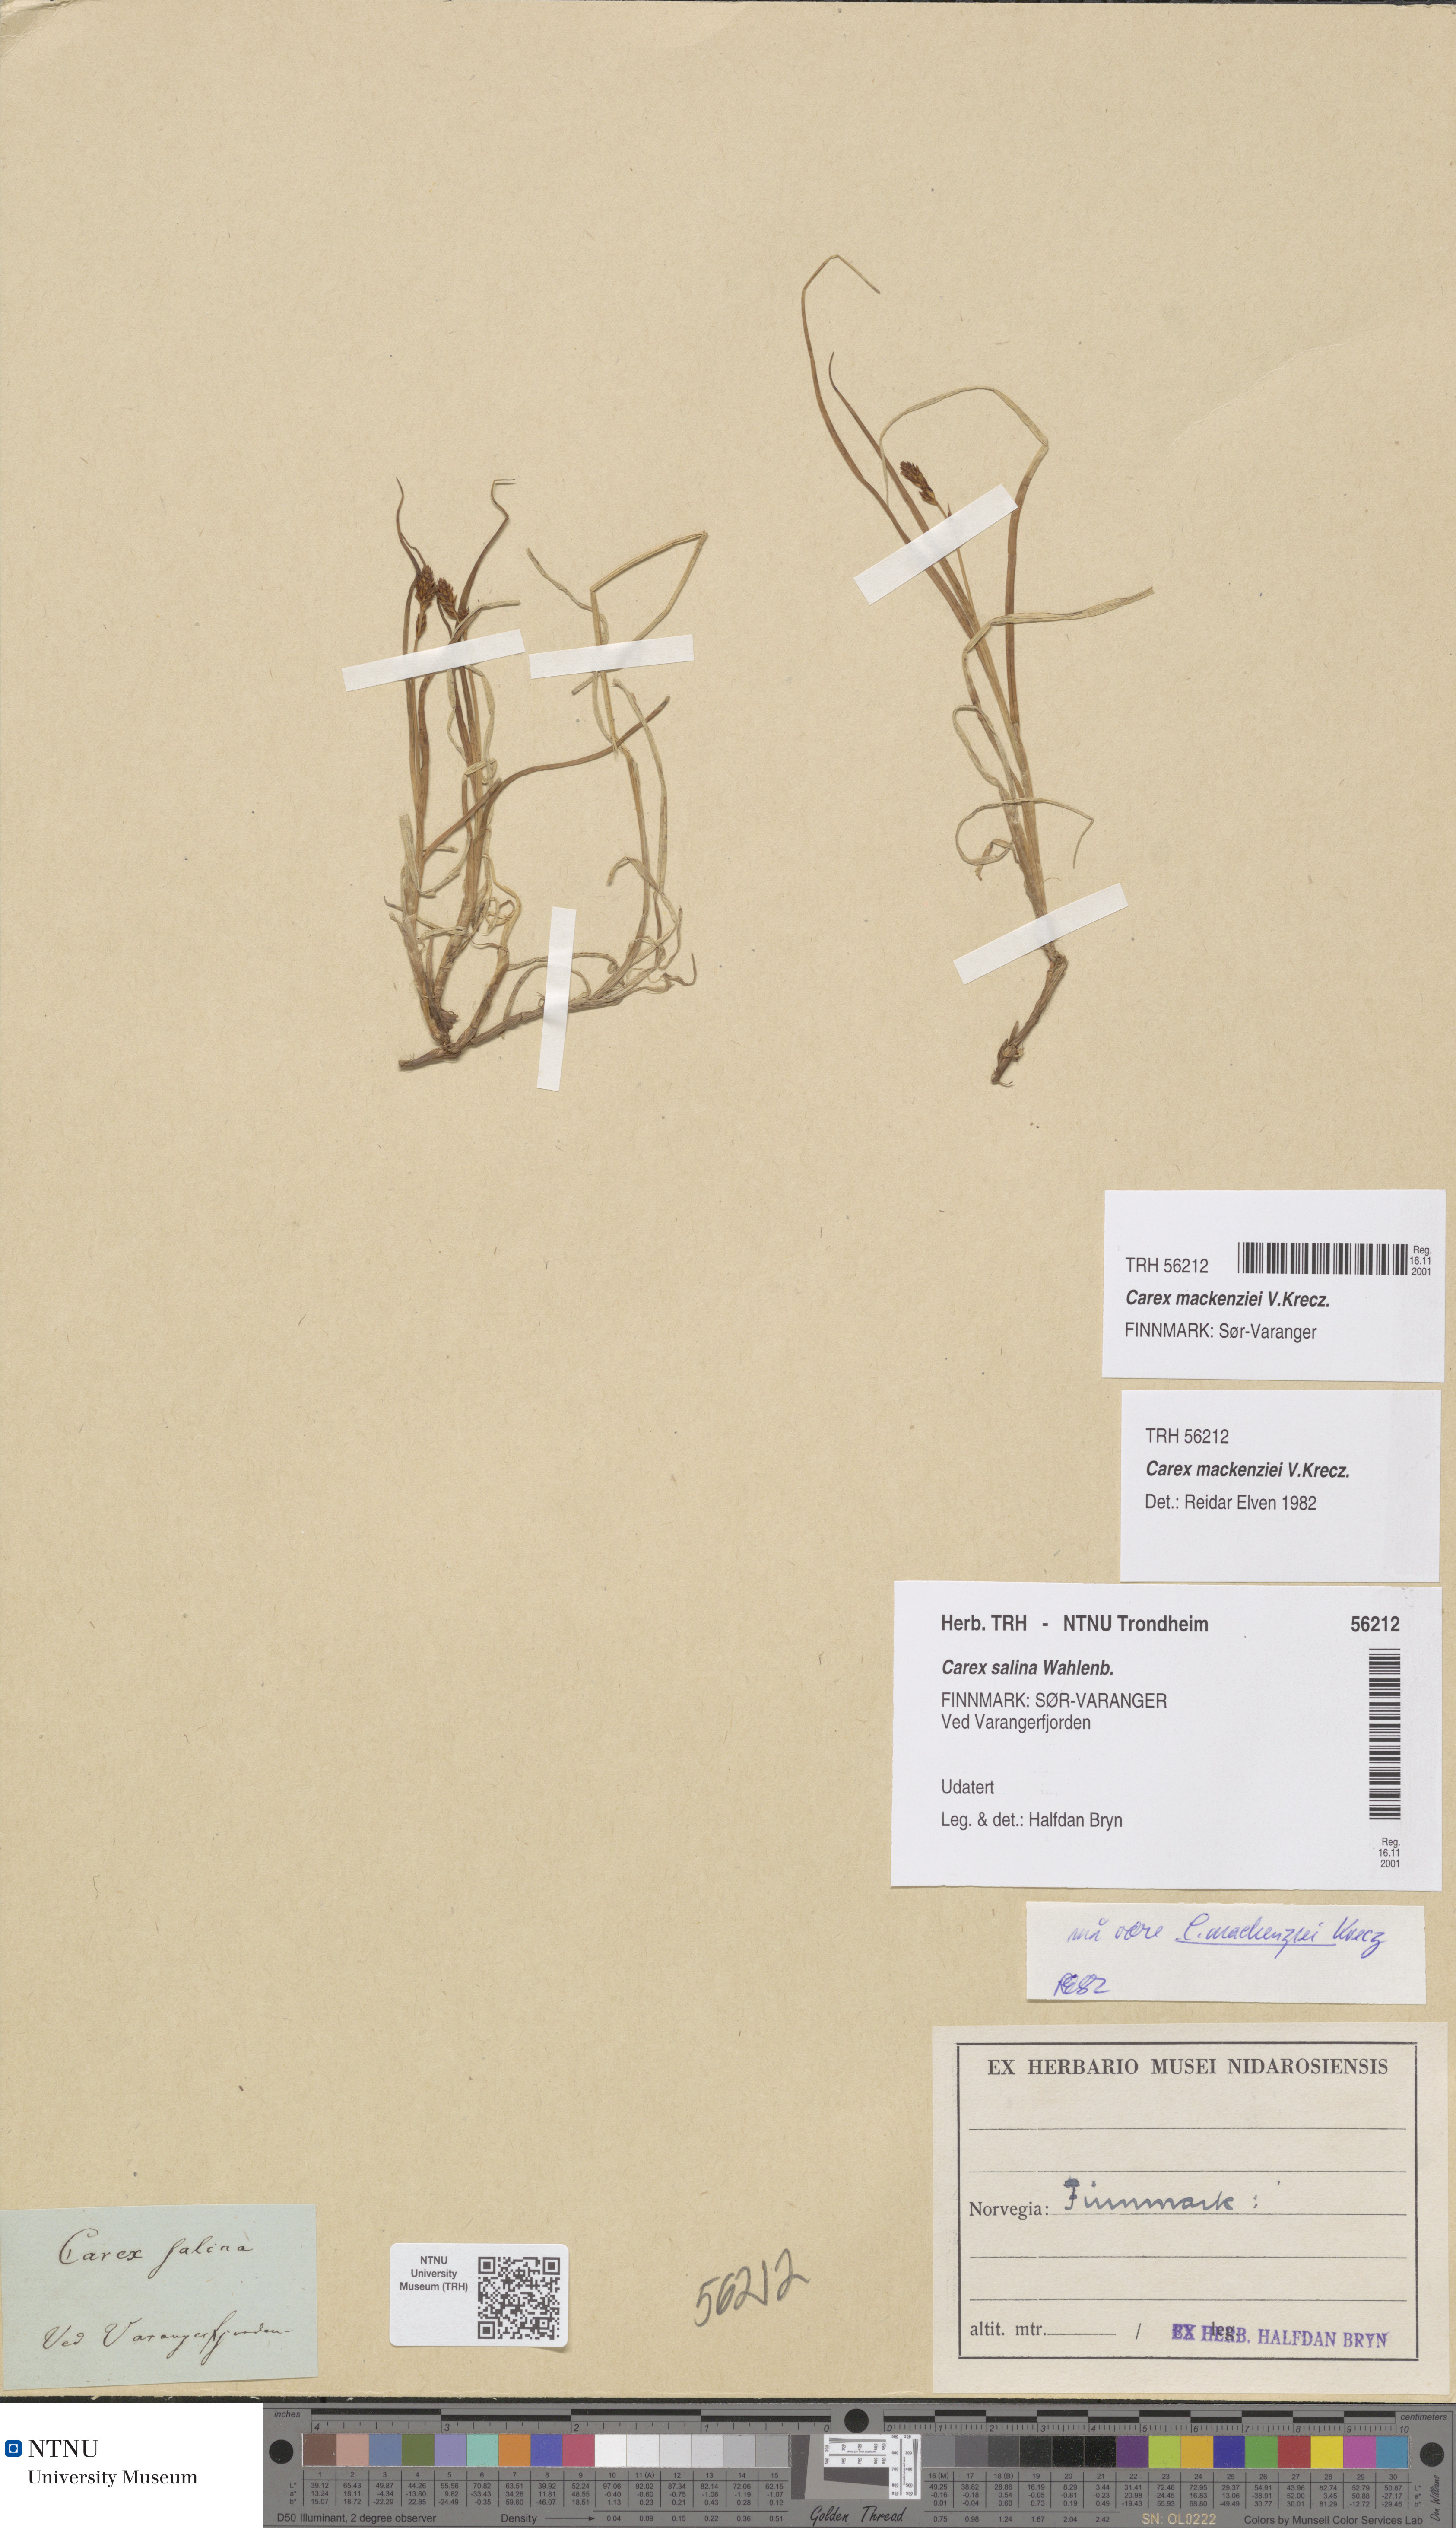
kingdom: Plantae
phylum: Tracheophyta
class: Liliopsida
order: Poales
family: Cyperaceae
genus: Carex
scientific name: Carex mackenziei
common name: Mackenzie's sedge
